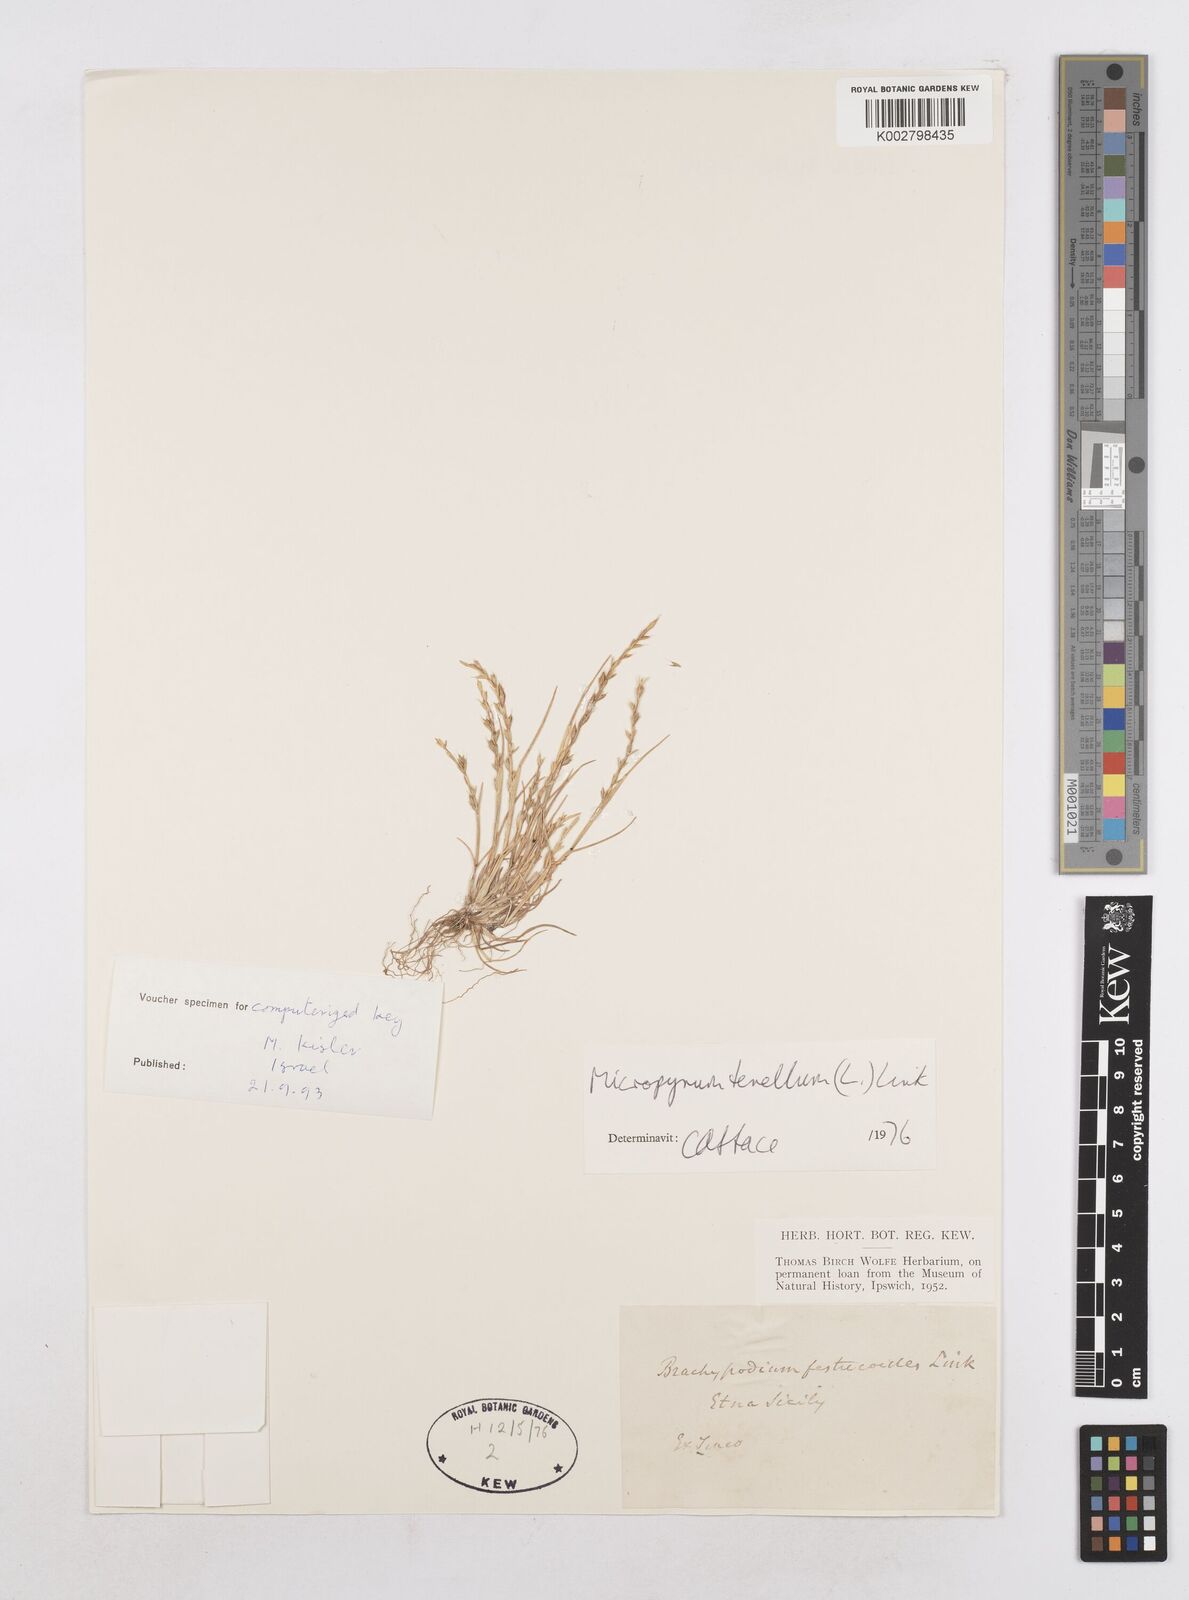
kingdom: Plantae
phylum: Tracheophyta
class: Liliopsida
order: Poales
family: Poaceae
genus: Festuca
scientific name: Festuca lachenalii
